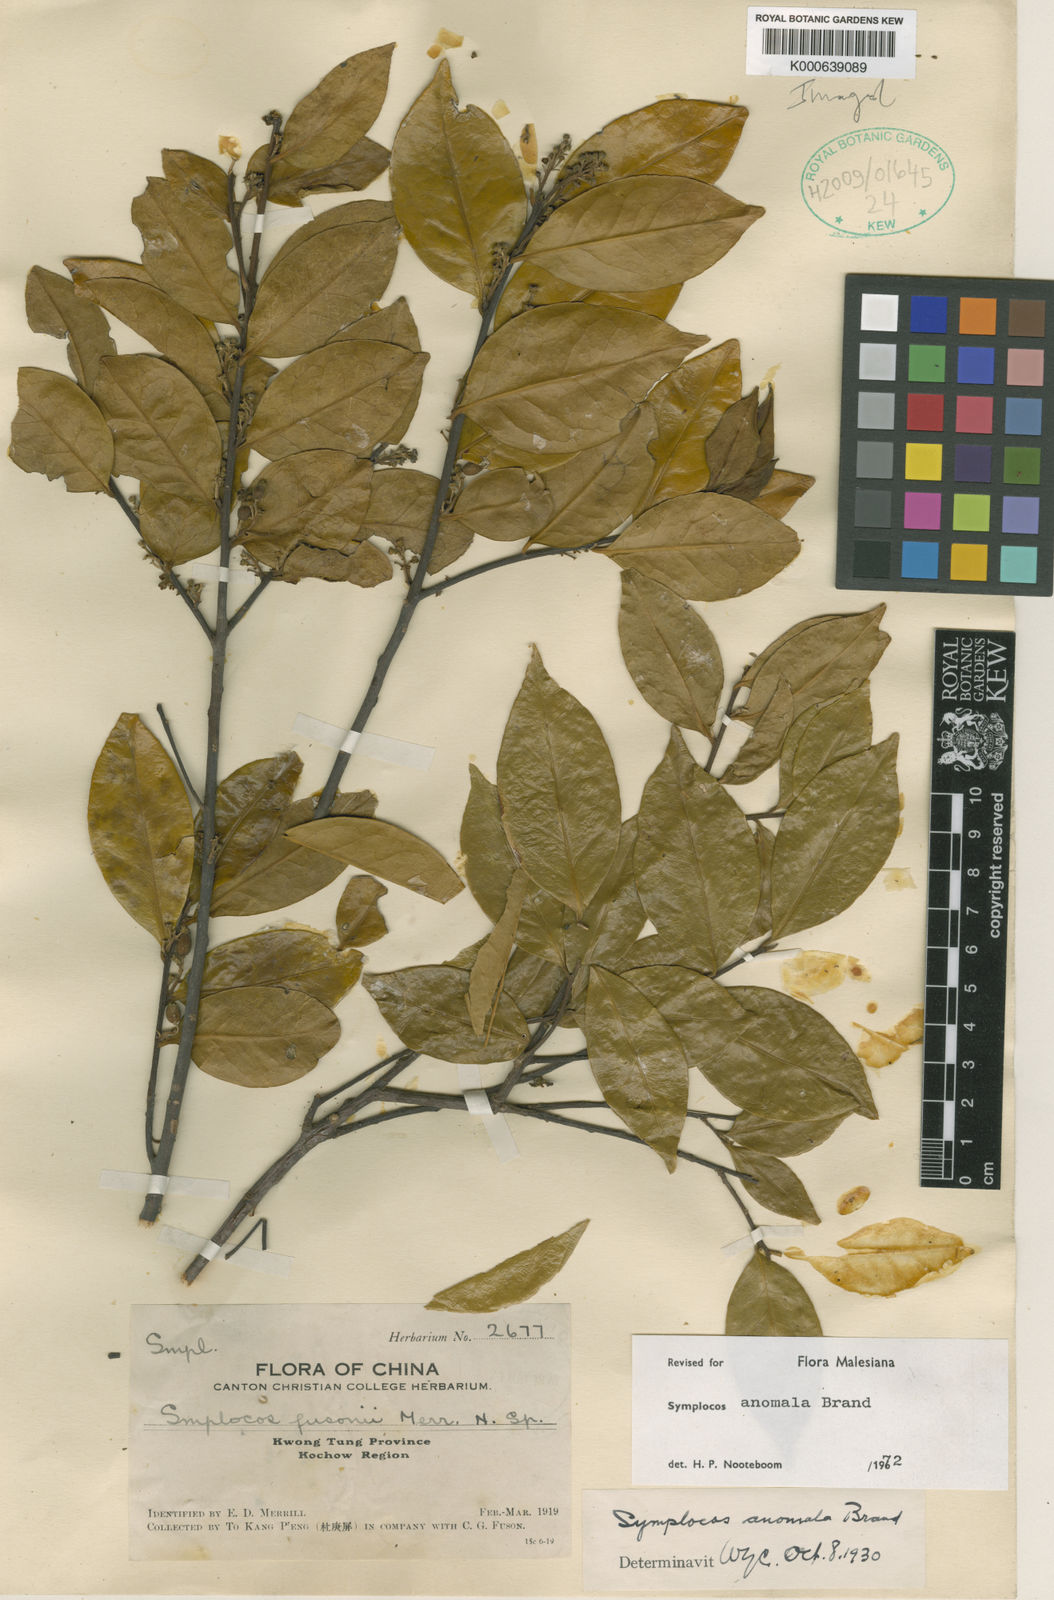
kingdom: Plantae
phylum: Tracheophyta
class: Magnoliopsida
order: Ericales
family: Symplocaceae
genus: Symplocos
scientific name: Symplocos anomala
